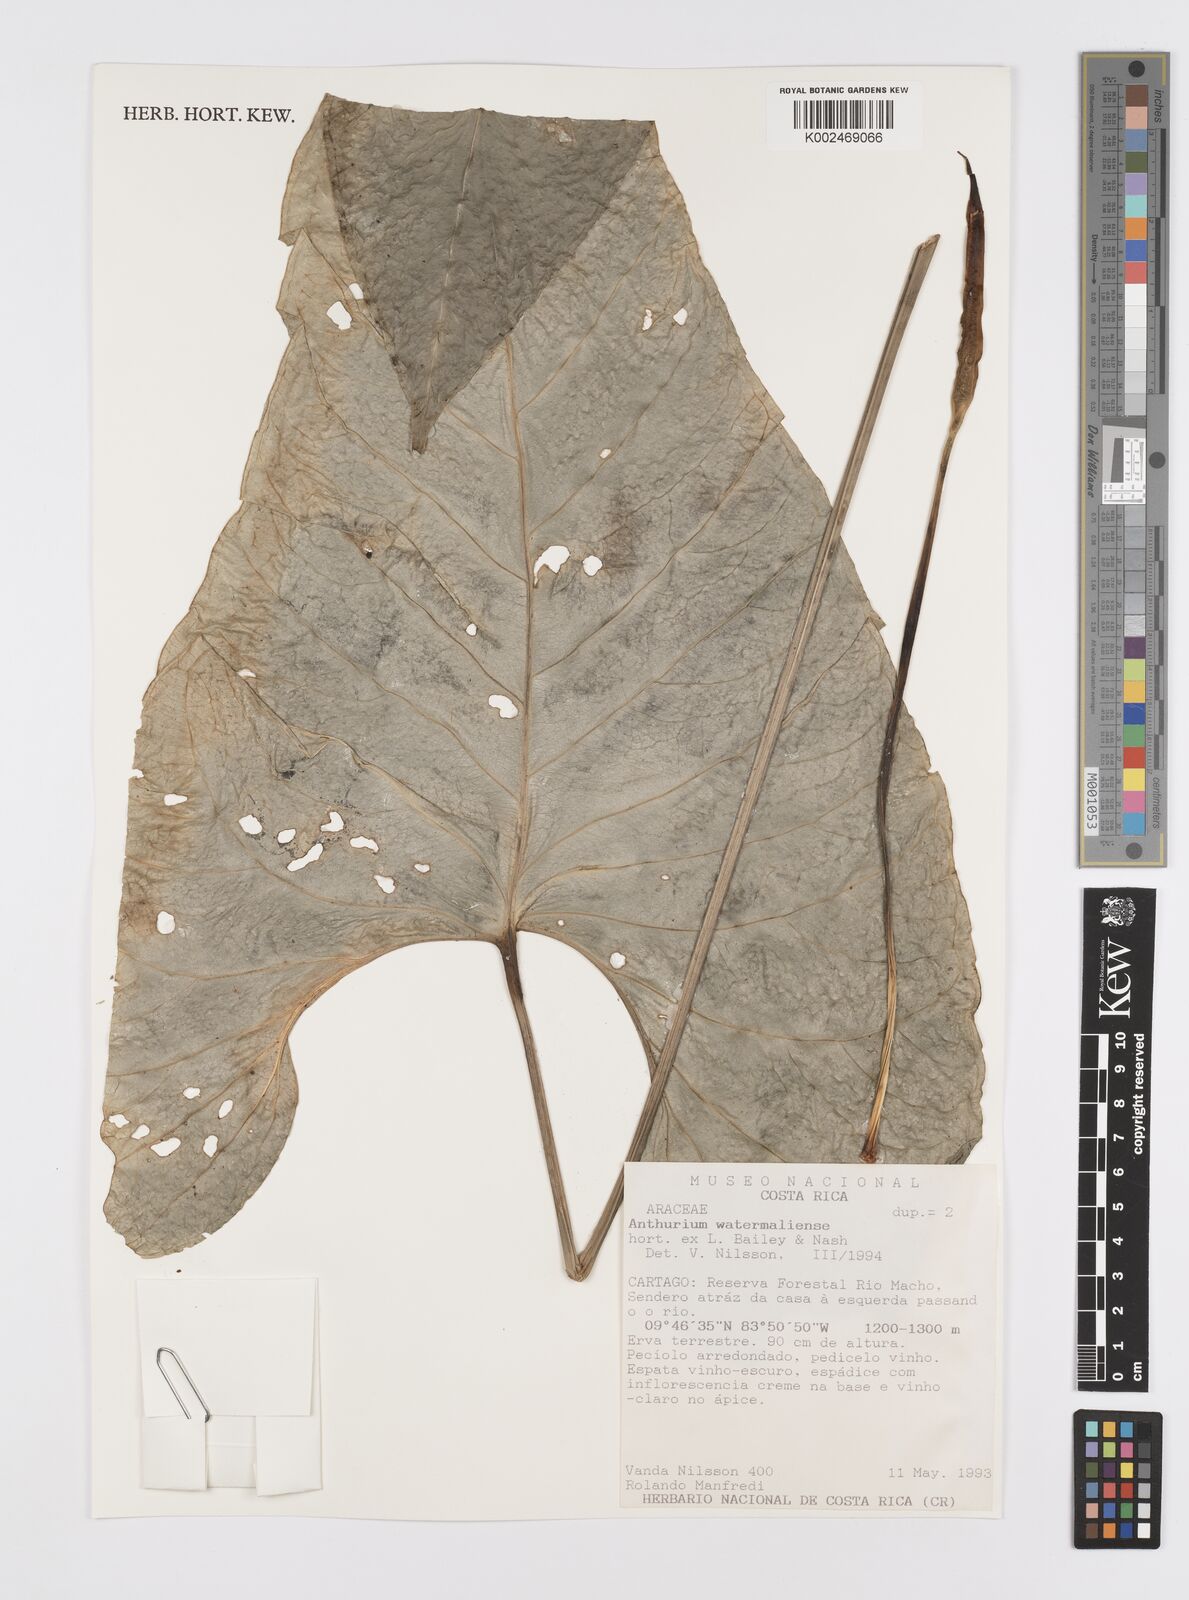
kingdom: Plantae
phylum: Tracheophyta
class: Liliopsida
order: Alismatales
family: Araceae
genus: Anthurium
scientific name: Anthurium watermaliense
